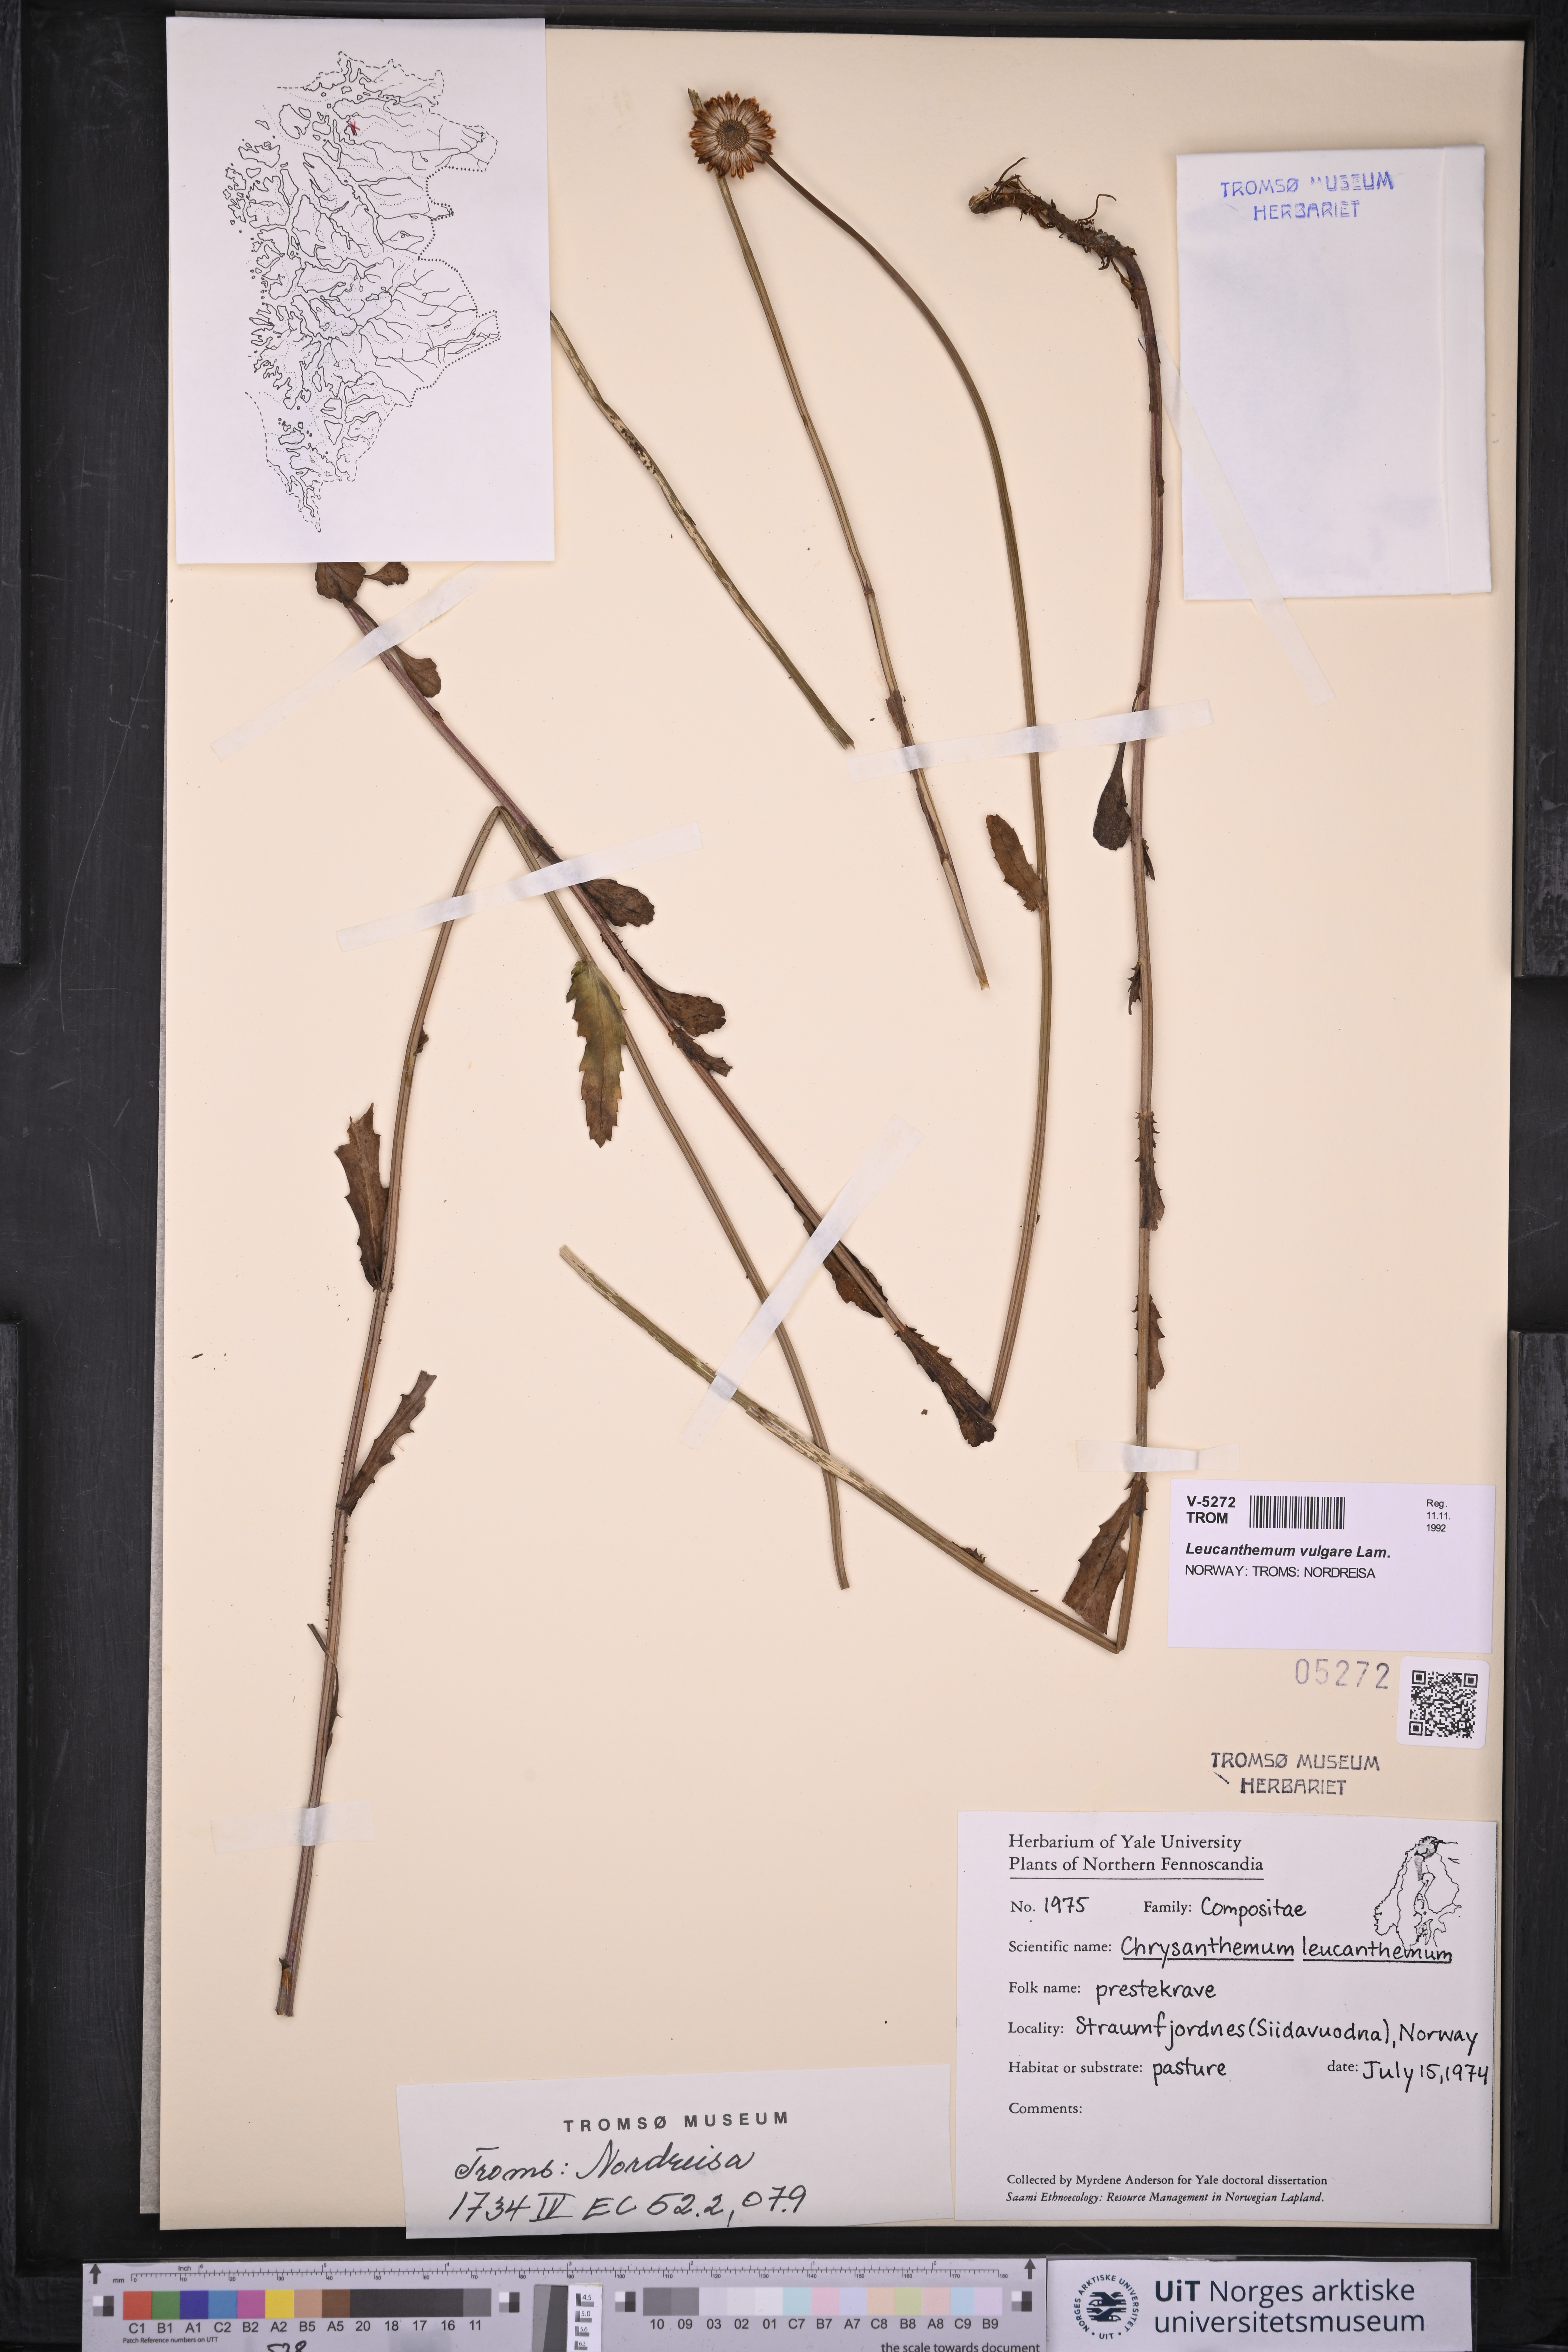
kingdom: Plantae
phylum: Tracheophyta
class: Magnoliopsida
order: Asterales
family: Asteraceae
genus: Leucanthemum
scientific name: Leucanthemum vulgare
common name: Oxeye daisy
